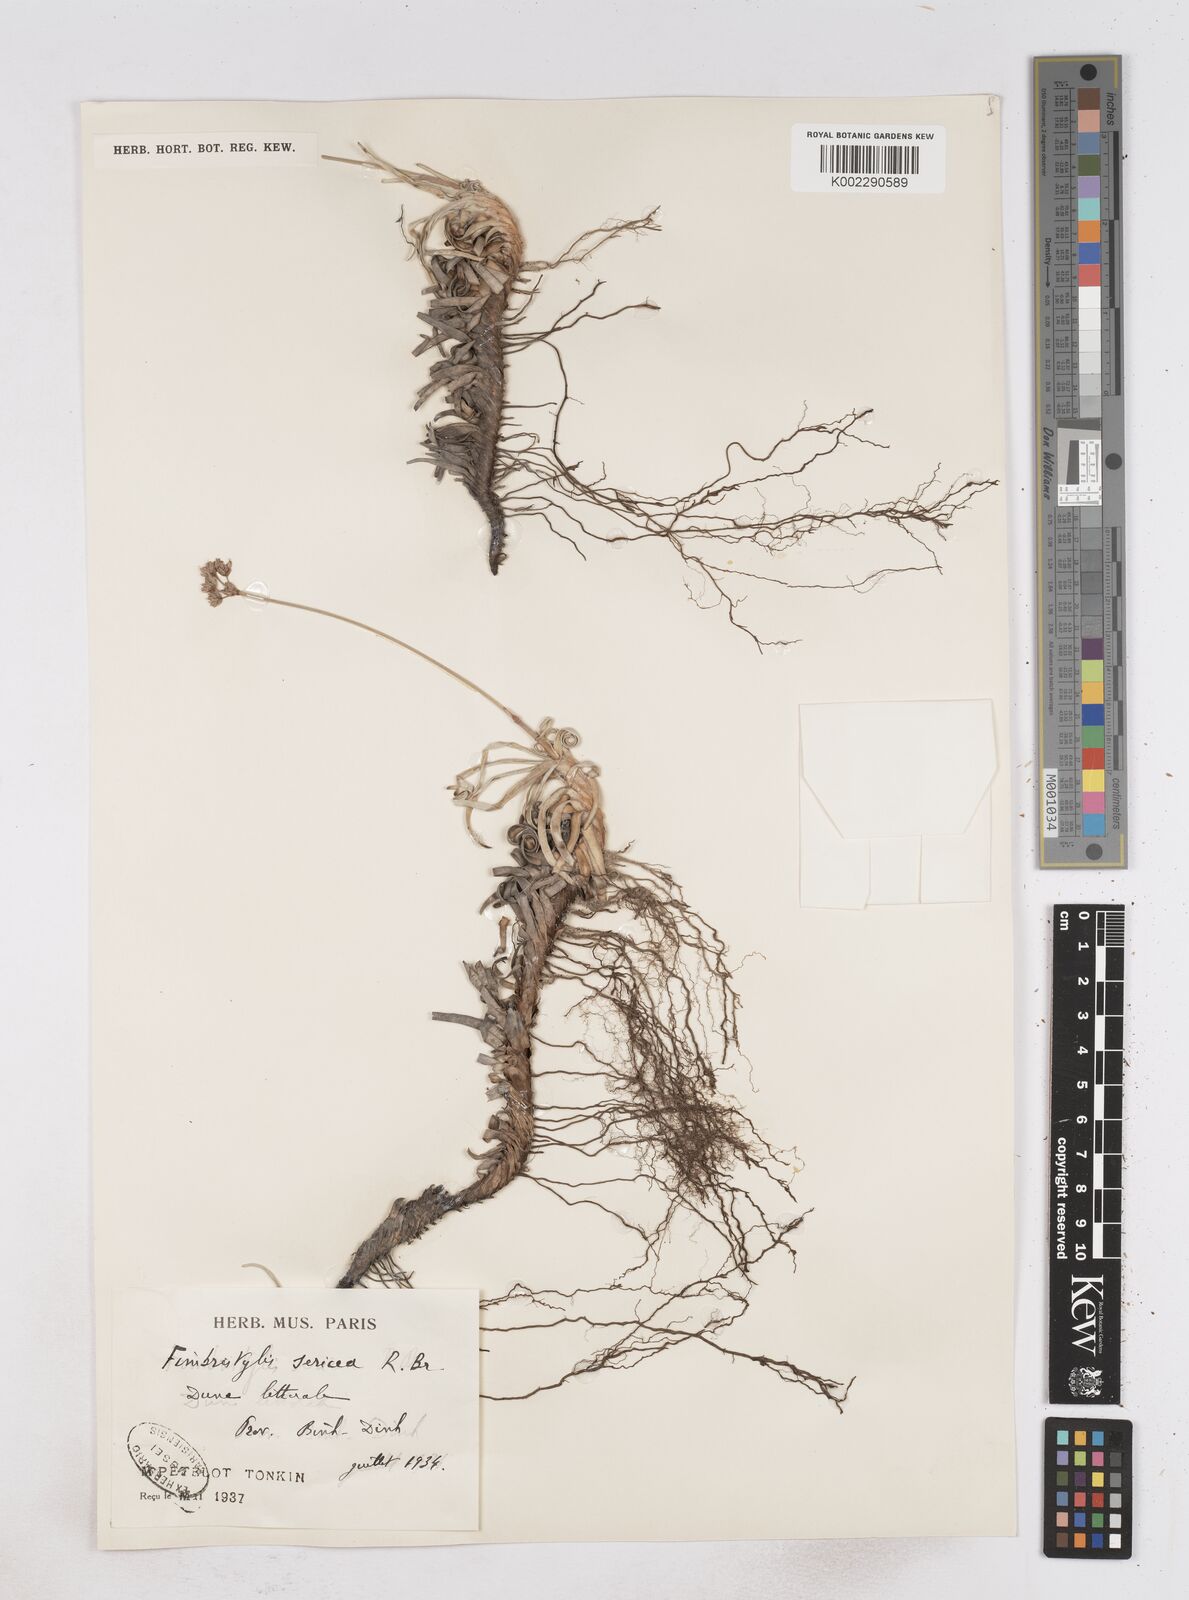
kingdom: Plantae
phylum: Tracheophyta
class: Liliopsida
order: Poales
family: Cyperaceae
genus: Fimbristylis
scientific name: Fimbristylis sericea
